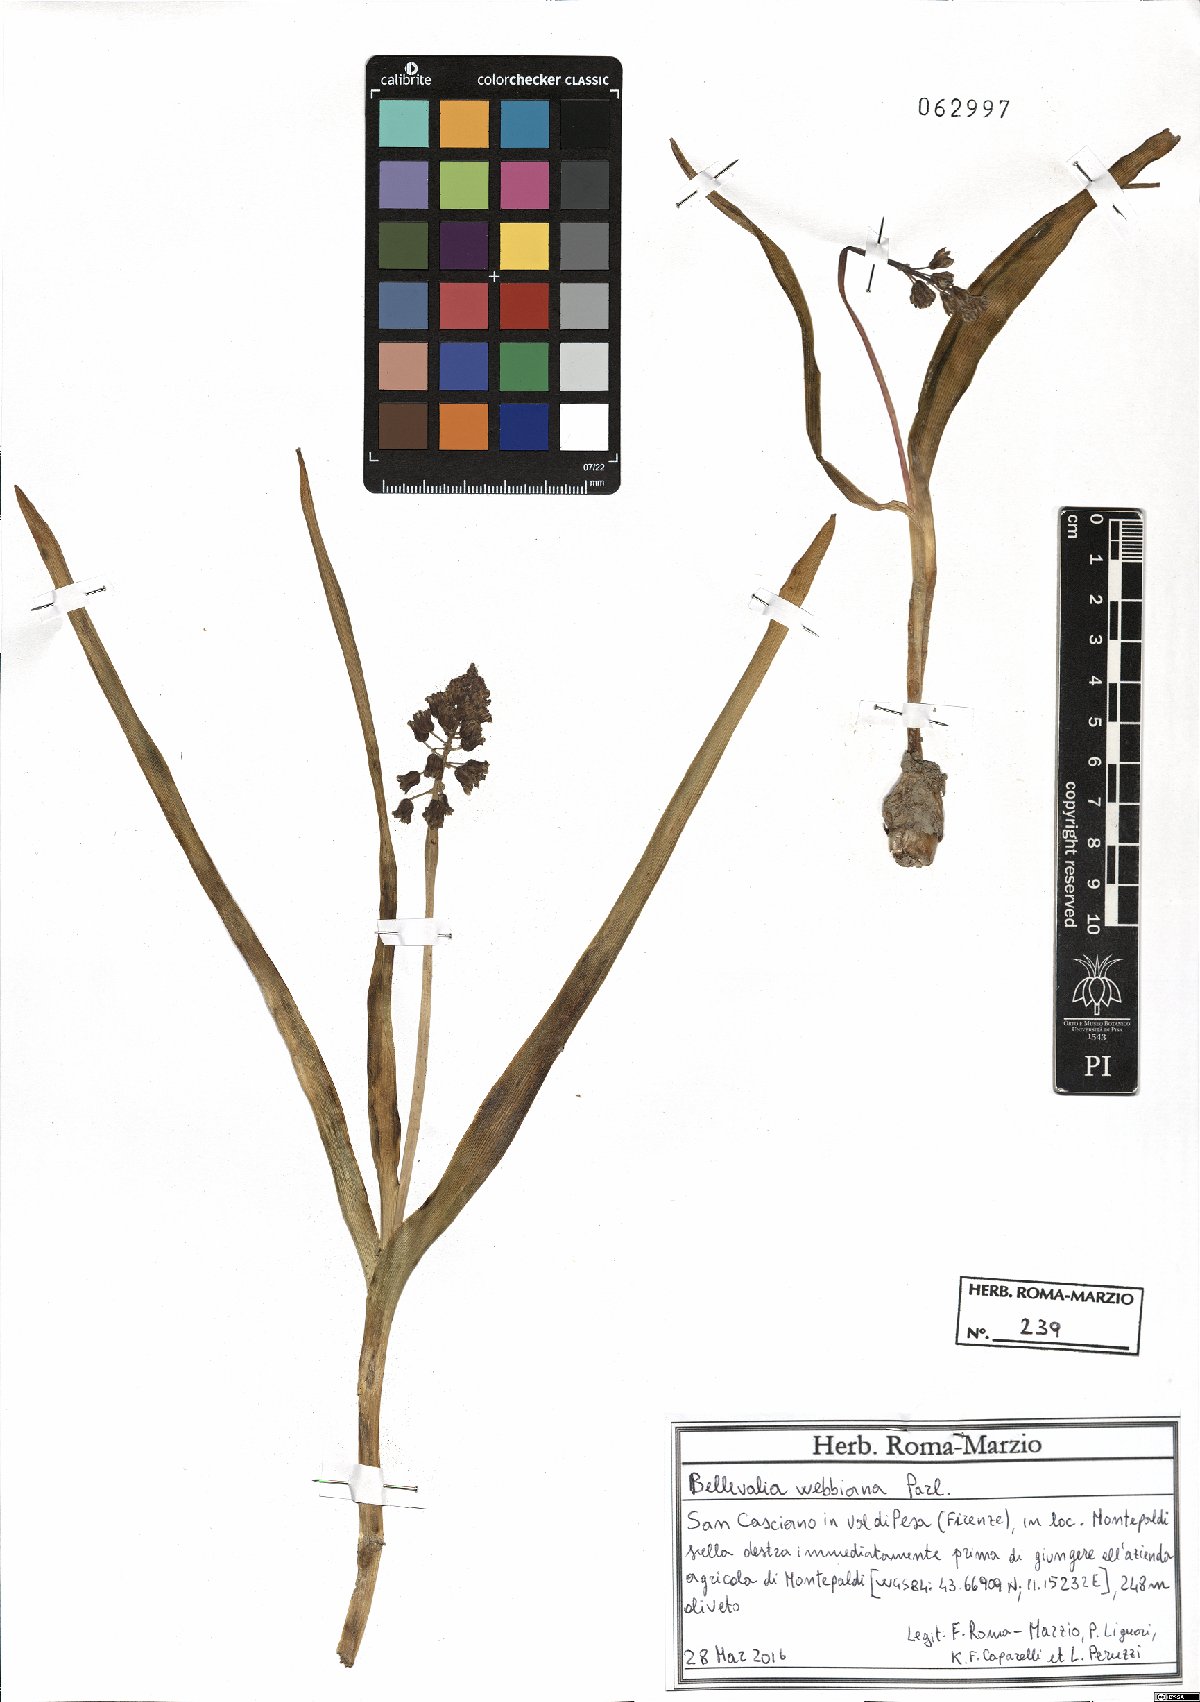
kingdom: Plantae
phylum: Tracheophyta
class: Liliopsida
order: Asparagales
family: Asparagaceae
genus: Bellevalia
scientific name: Bellevalia webbiana
